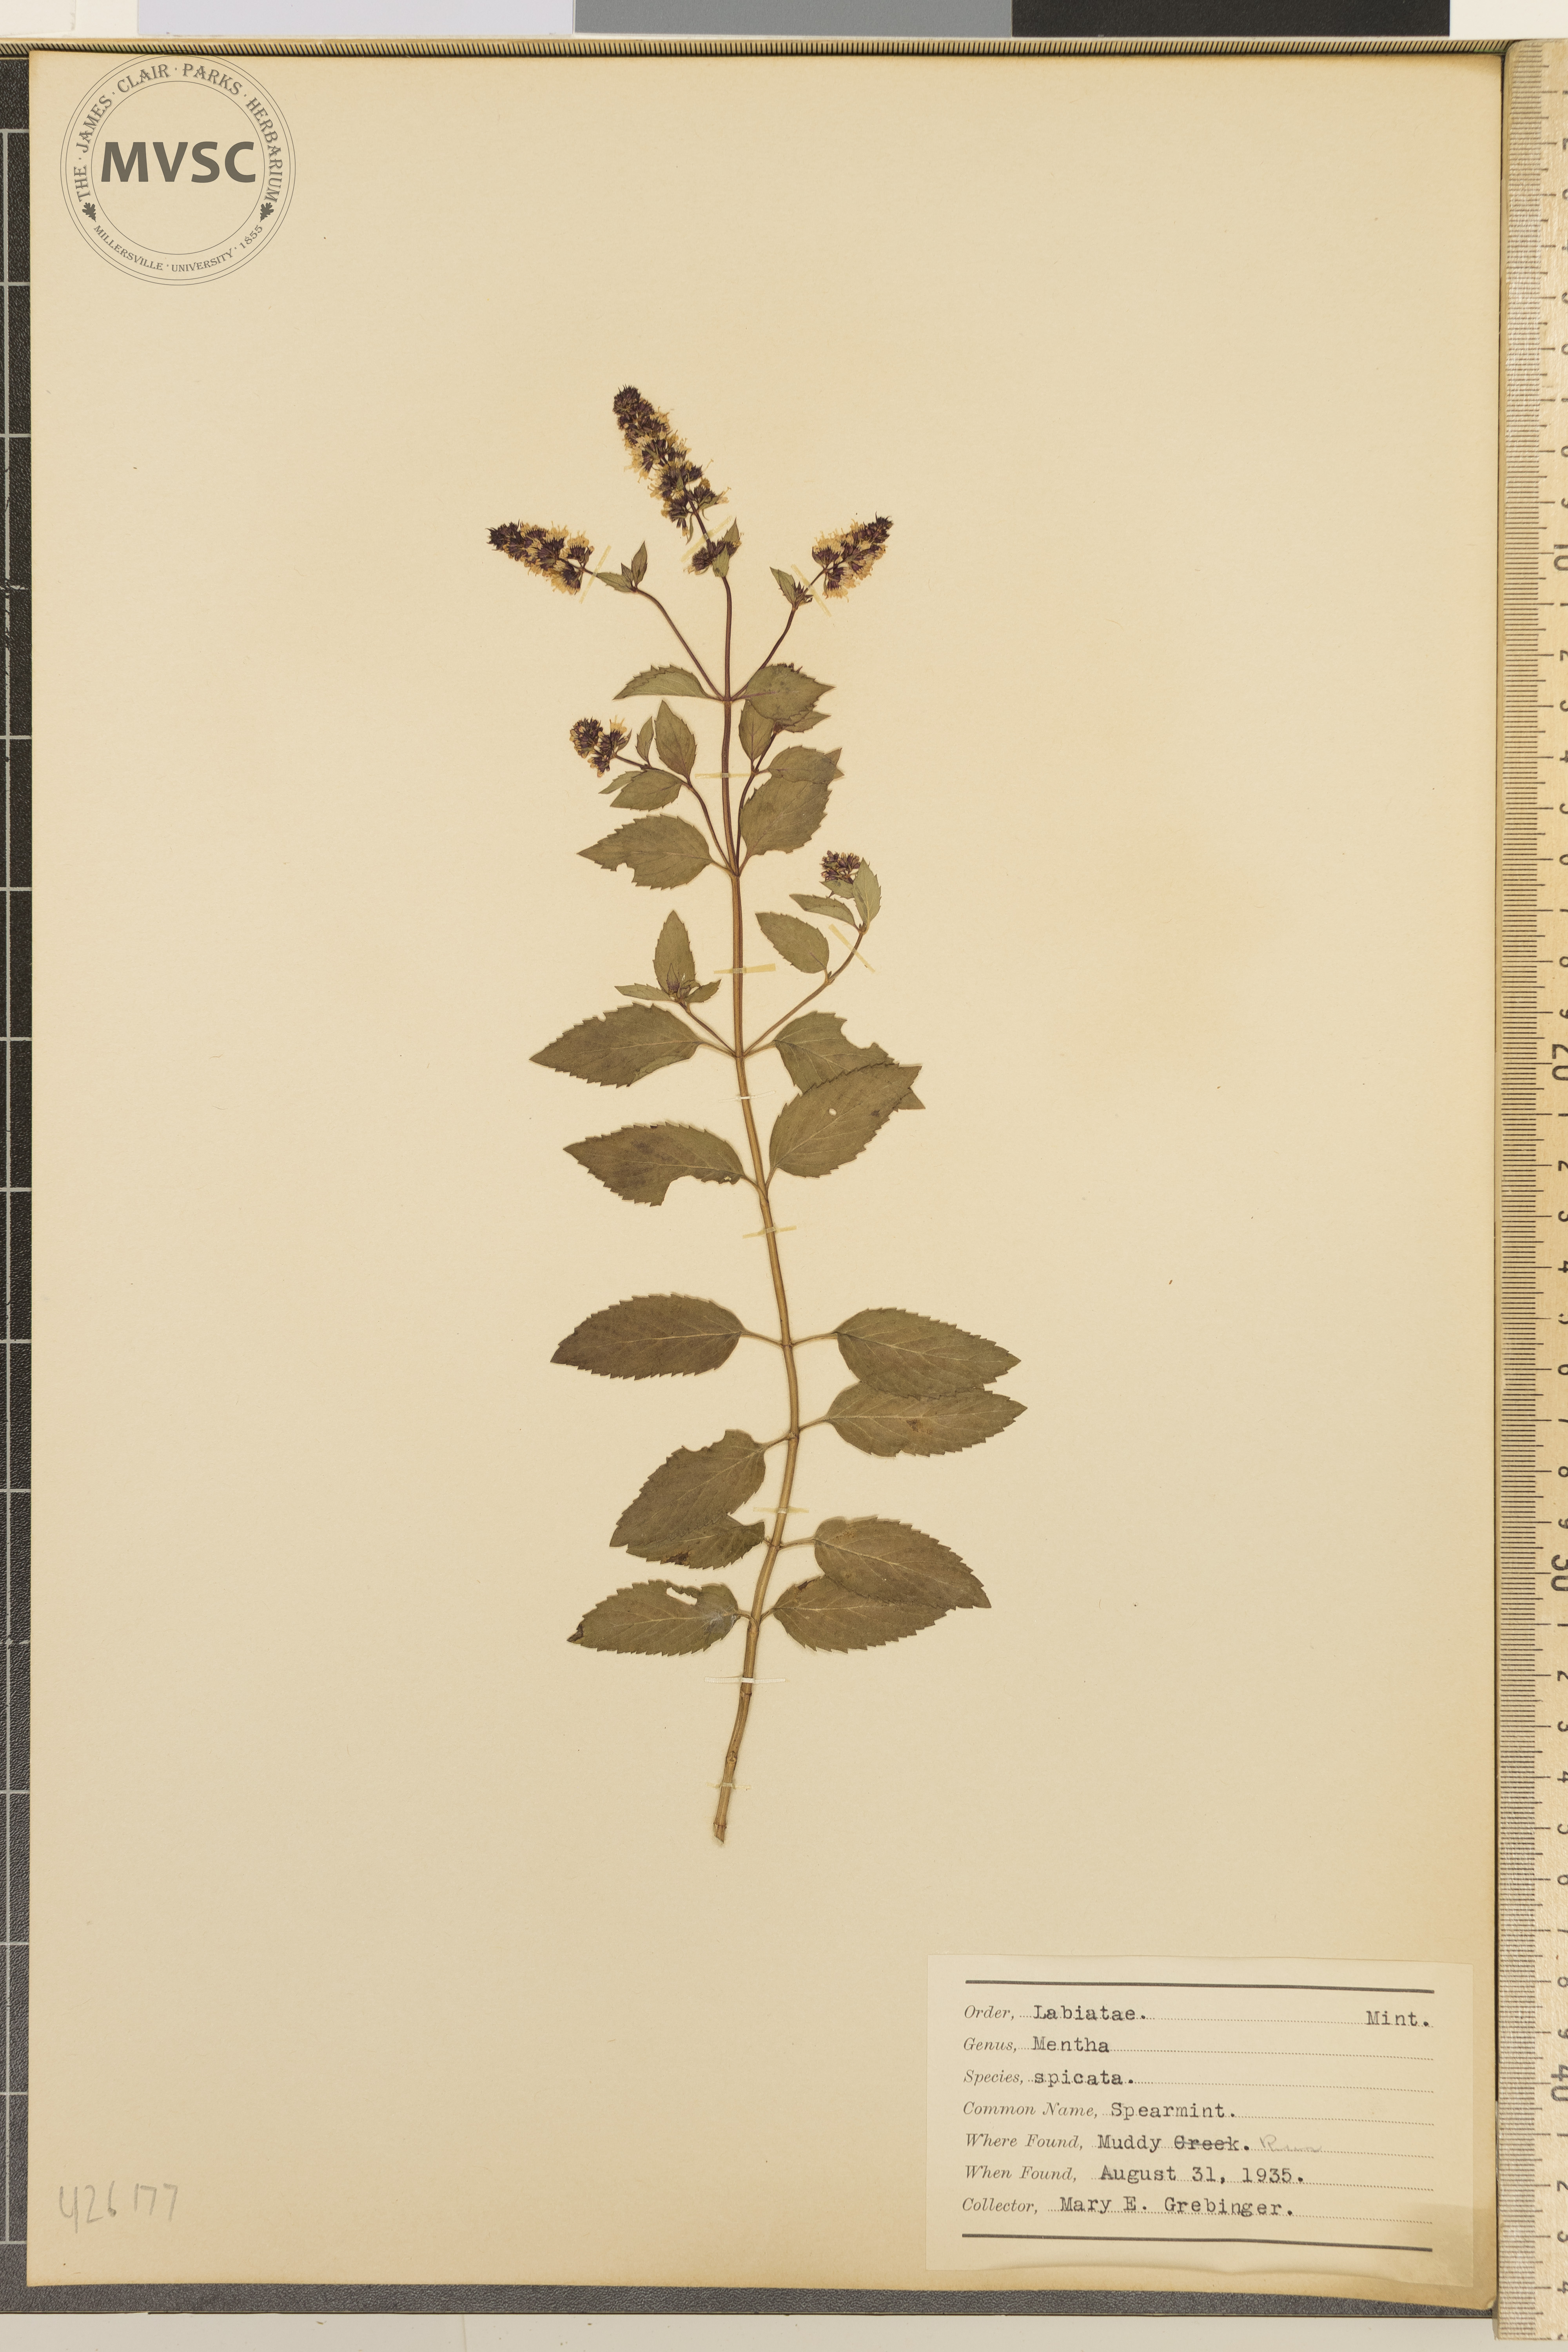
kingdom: Plantae
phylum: Tracheophyta
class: Magnoliopsida
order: Lamiales
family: Lamiaceae
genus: Mentha
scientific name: Mentha spicata
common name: Spearmint
